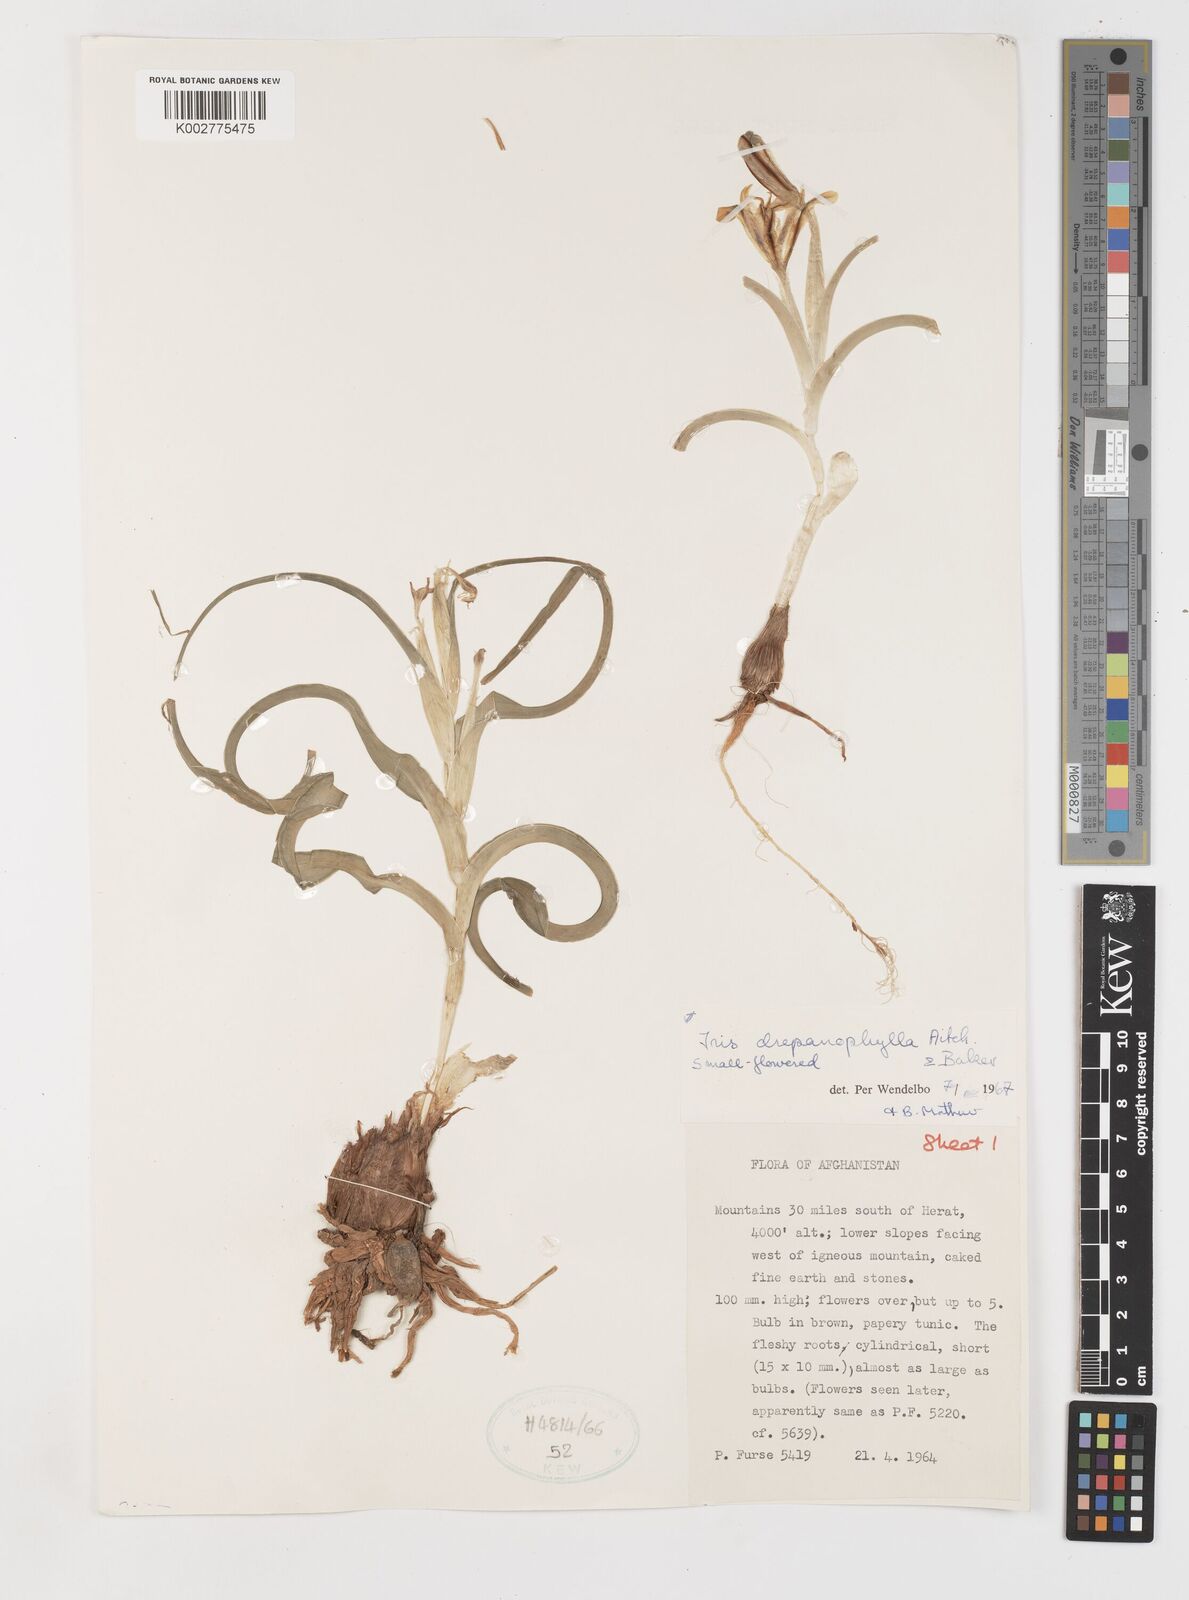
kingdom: Plantae
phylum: Tracheophyta
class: Liliopsida
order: Asparagales
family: Iridaceae
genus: Iris
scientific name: Iris drepanophylla
